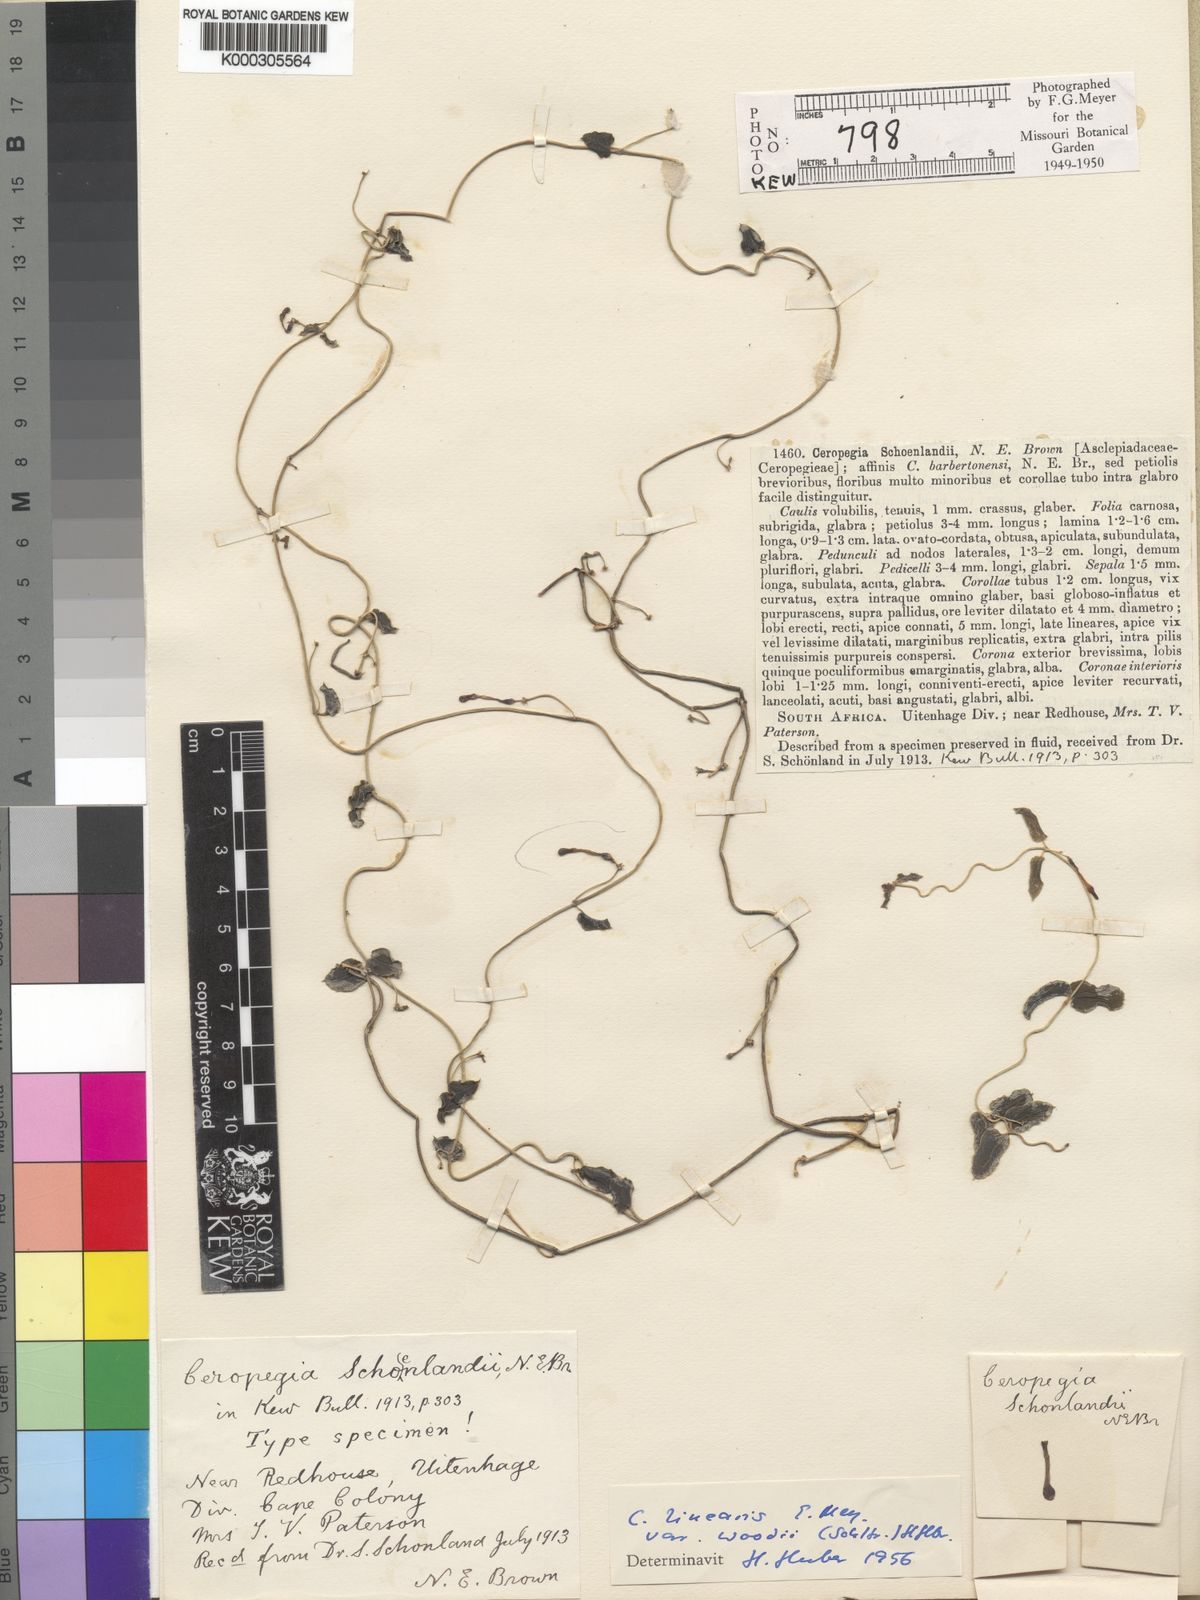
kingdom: Plantae
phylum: Tracheophyta
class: Magnoliopsida
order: Gentianales
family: Apocynaceae
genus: Ceropegia
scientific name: Ceropegia woodii
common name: Hearts entangled
